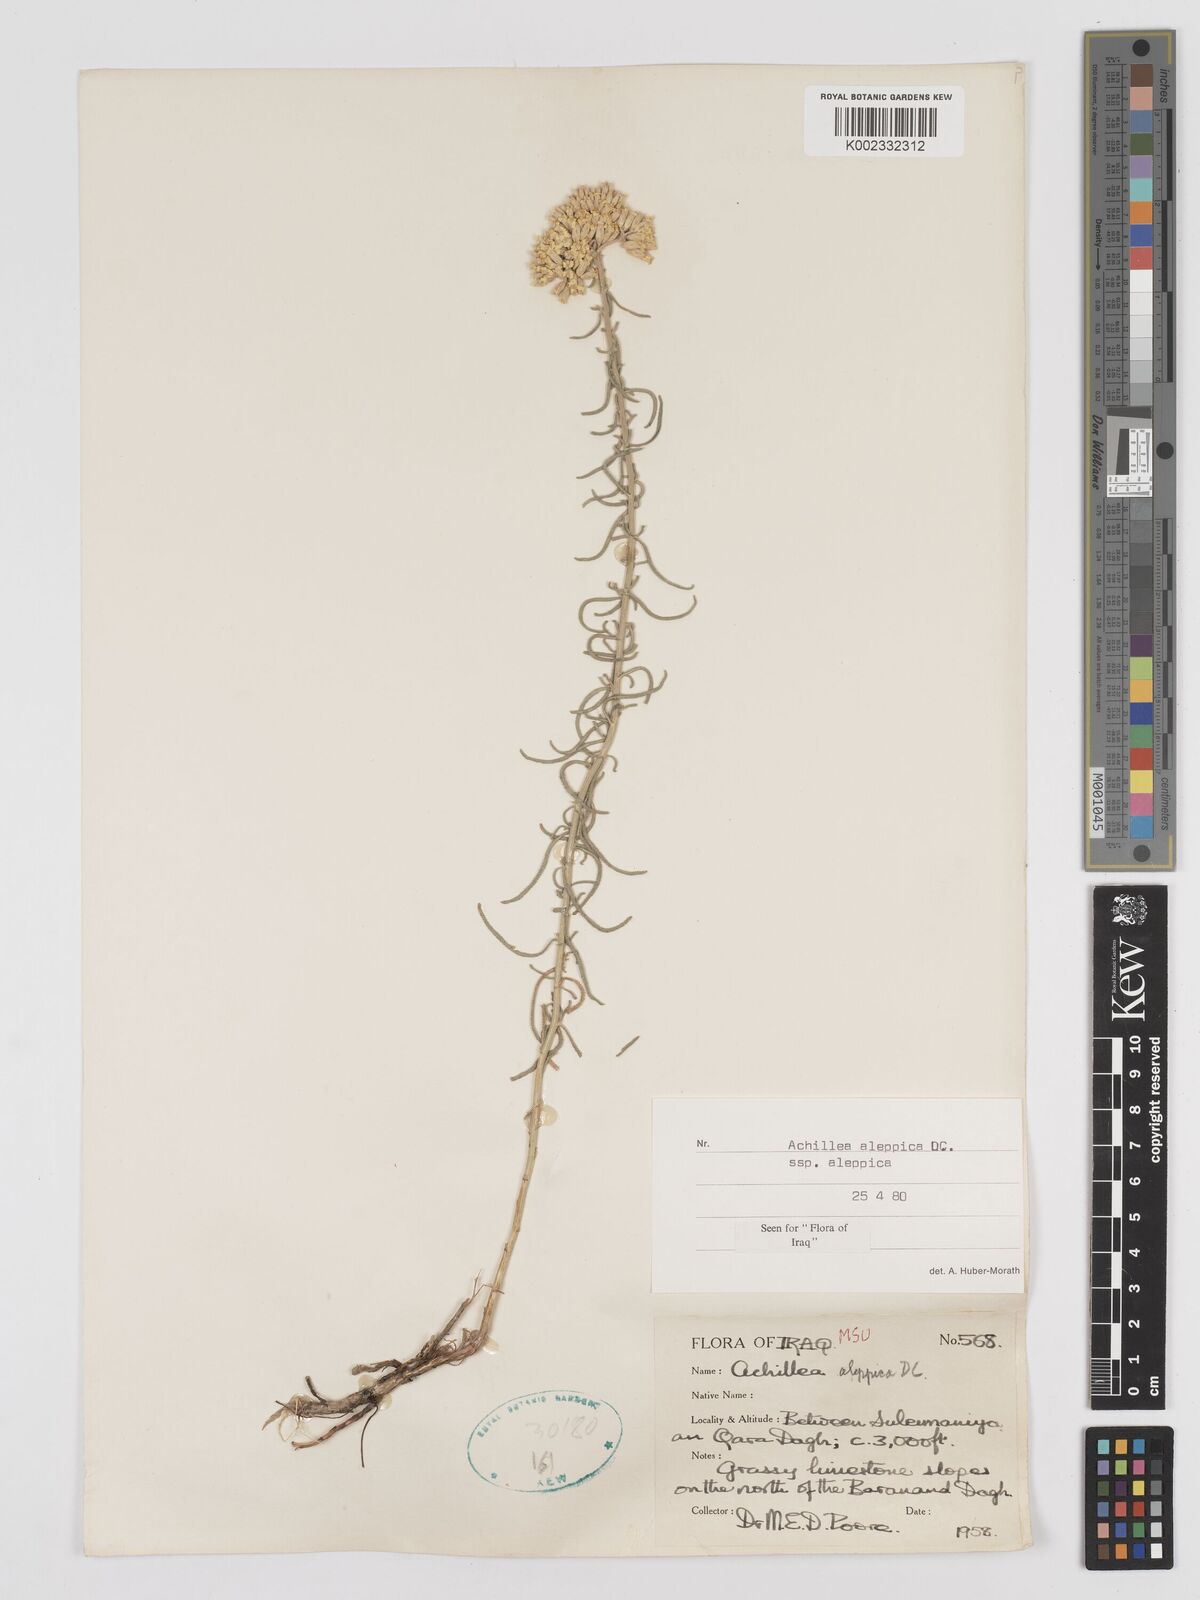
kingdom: Plantae
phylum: Tracheophyta
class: Magnoliopsida
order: Asterales
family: Asteraceae
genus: Achillea
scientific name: Achillea aleppica
